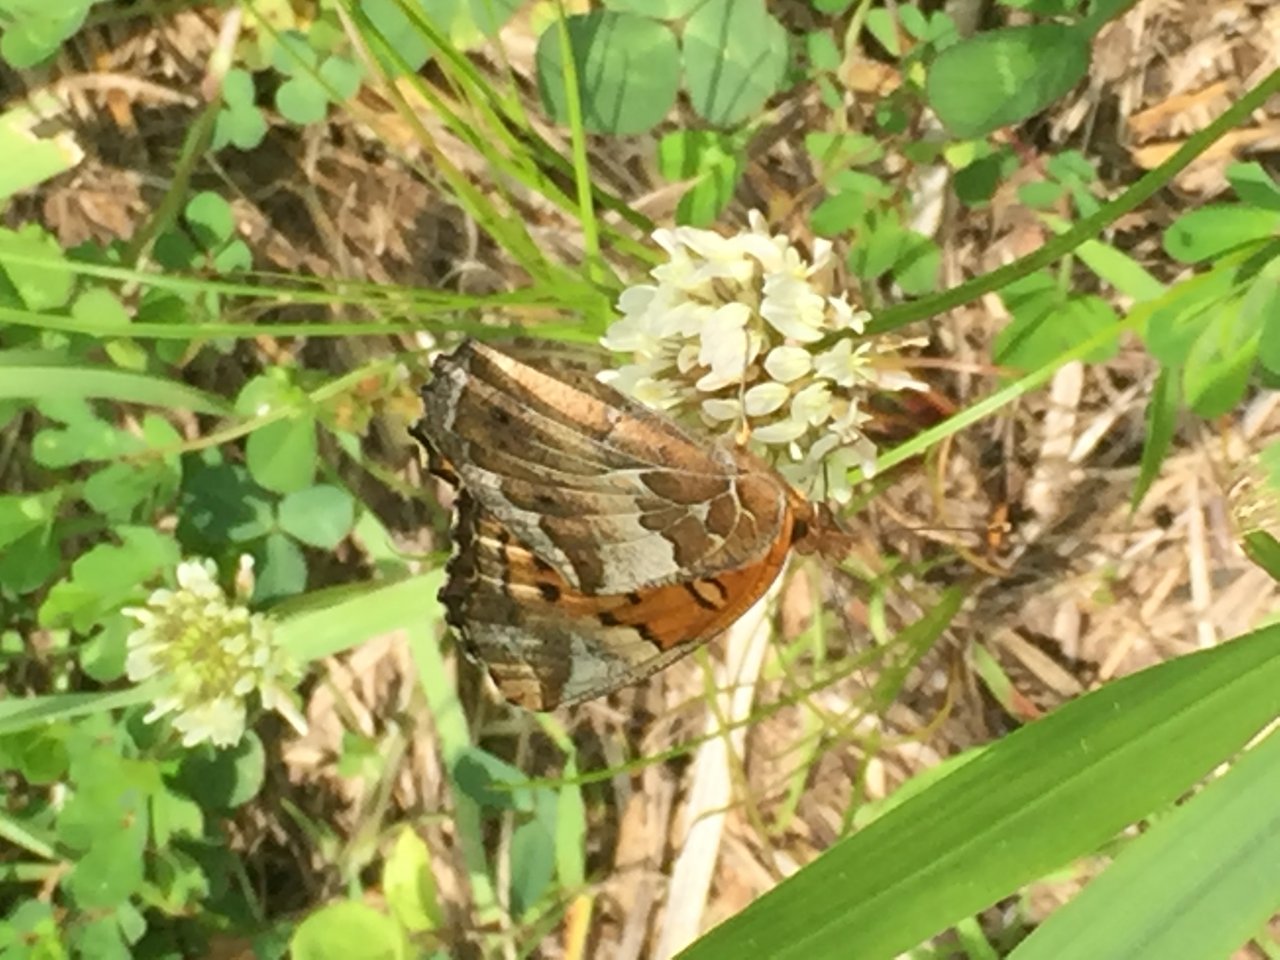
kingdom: Animalia
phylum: Arthropoda
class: Insecta
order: Lepidoptera
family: Nymphalidae
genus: Euptoieta
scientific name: Euptoieta claudia
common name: Variegated Fritillary
